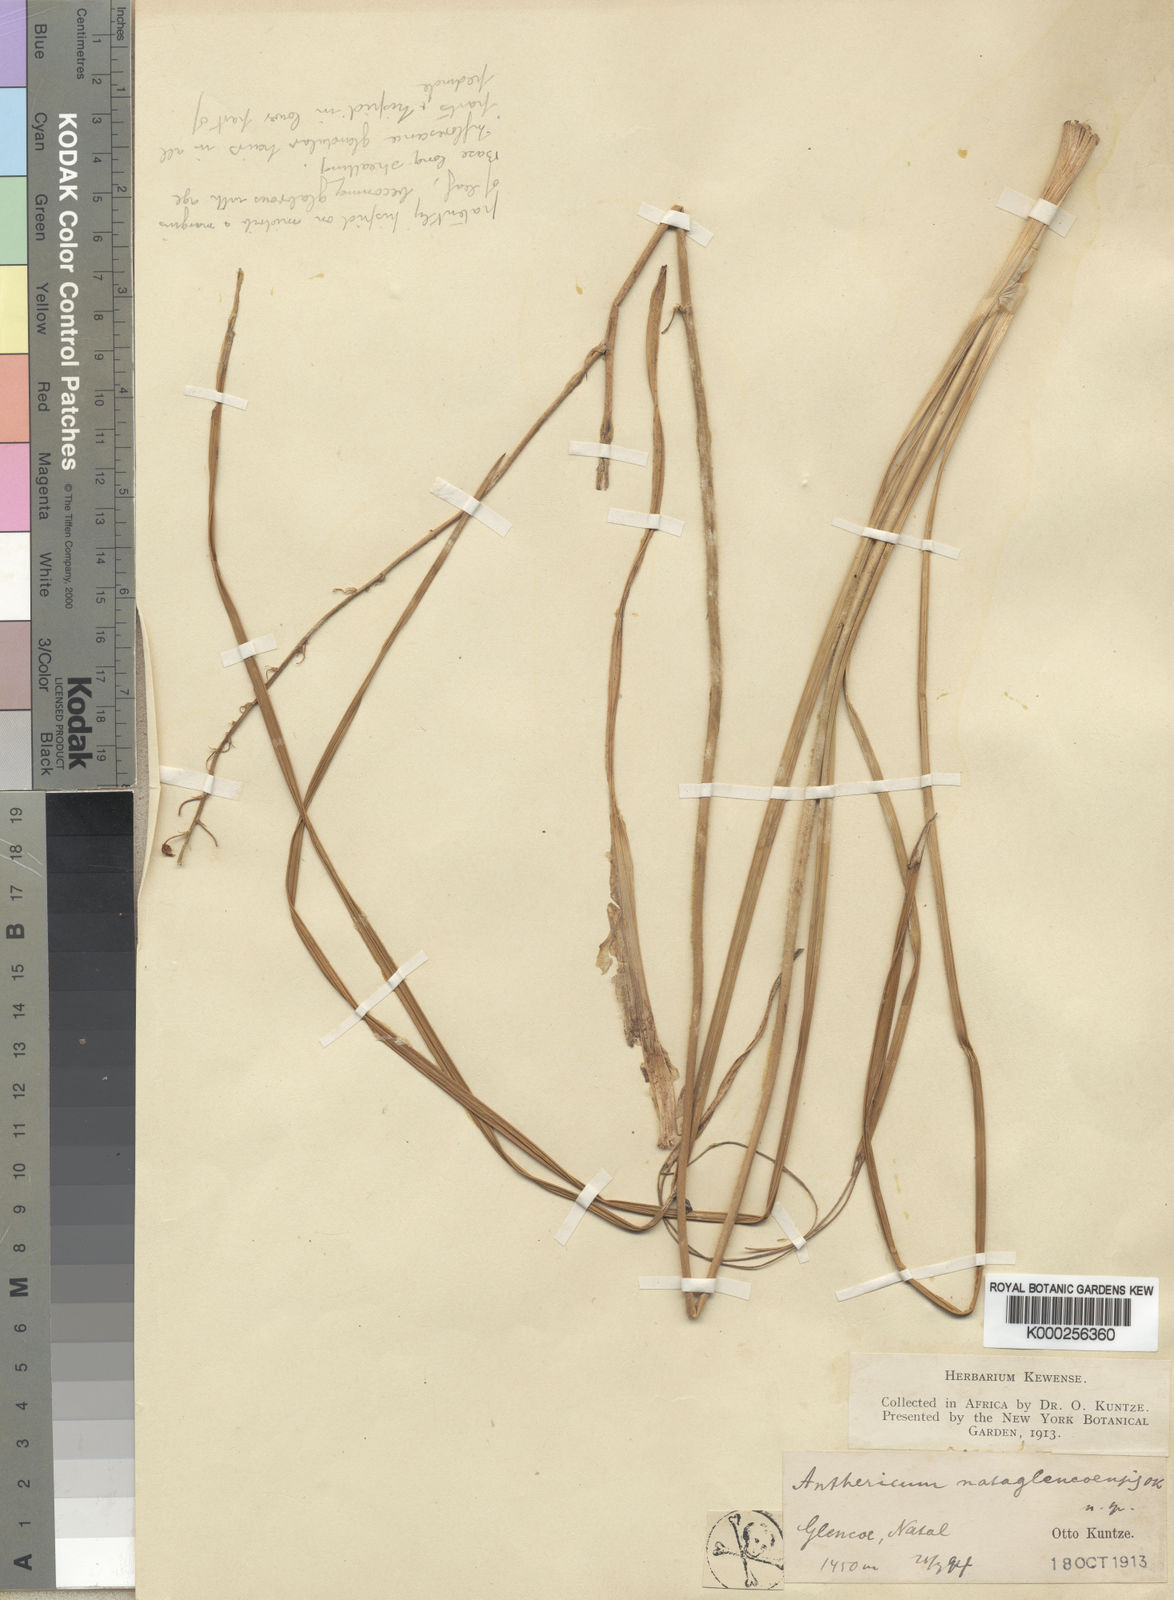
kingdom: Plantae
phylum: Tracheophyta
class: Liliopsida
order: Asparagales
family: Asphodelaceae
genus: Trachyandra
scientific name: Trachyandra asperata
